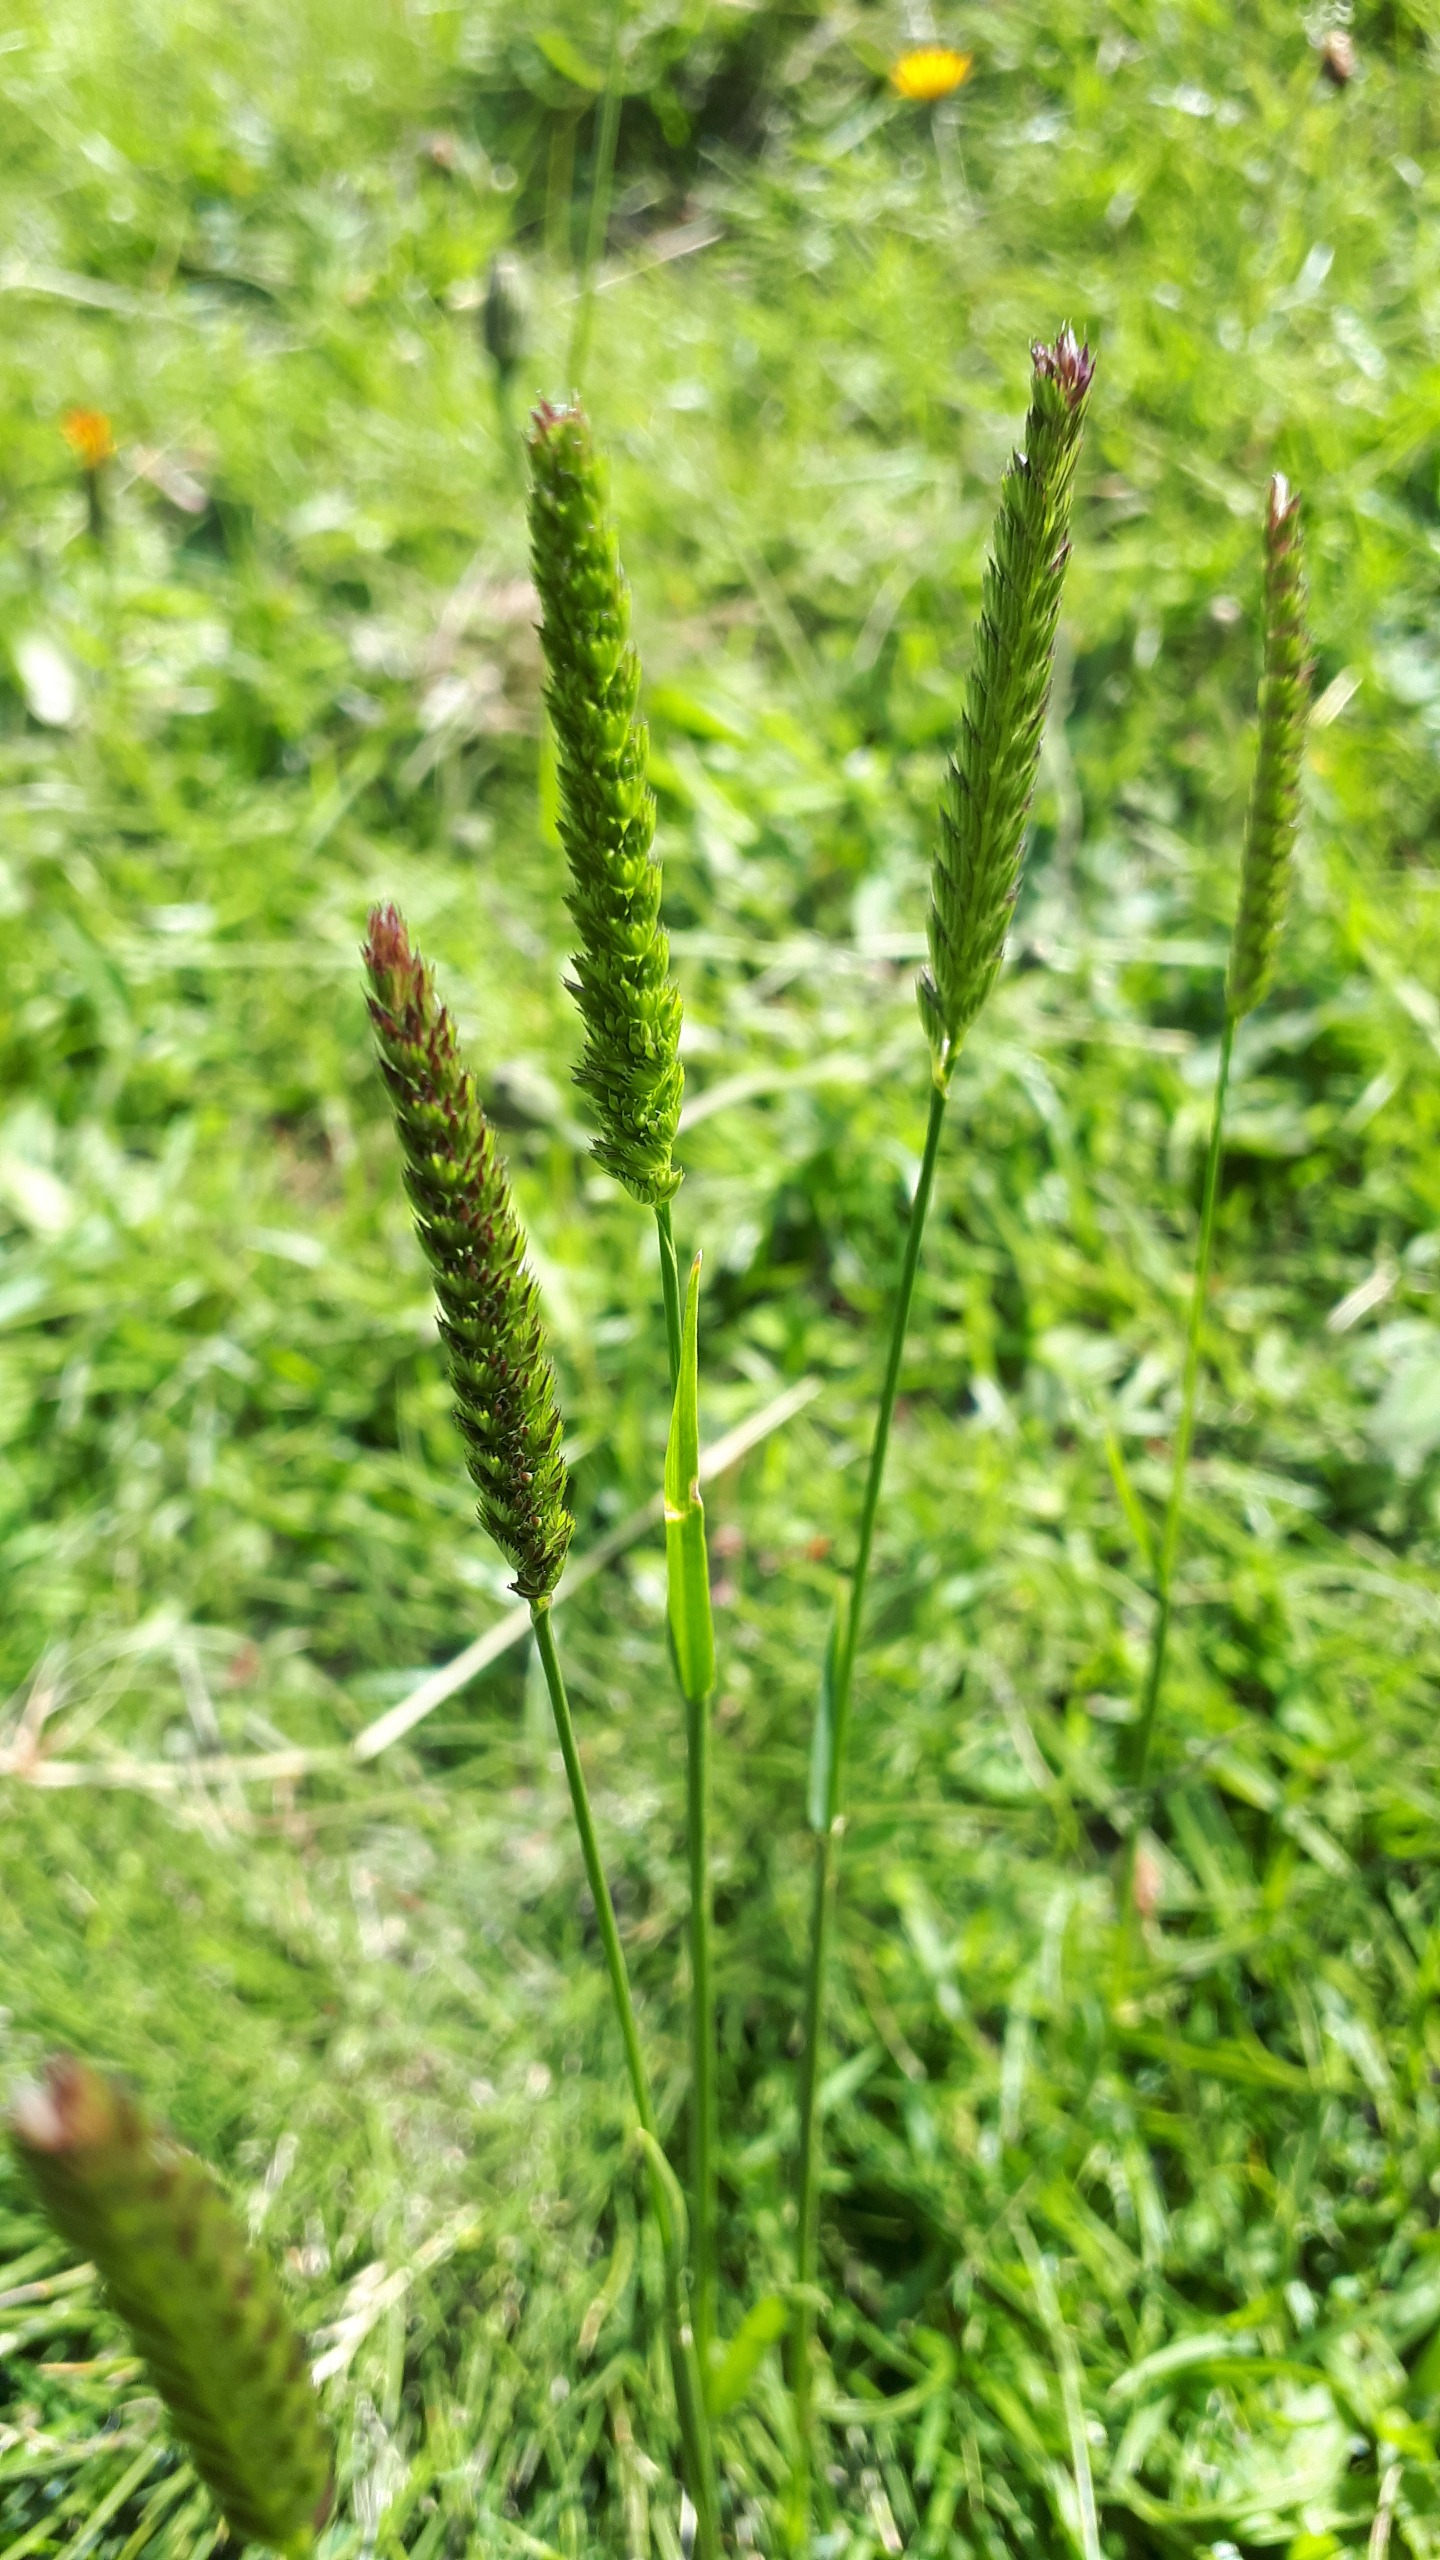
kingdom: Plantae
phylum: Tracheophyta
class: Liliopsida
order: Poales
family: Poaceae
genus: Cynosurus
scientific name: Cynosurus cristatus
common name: Kamgræs
